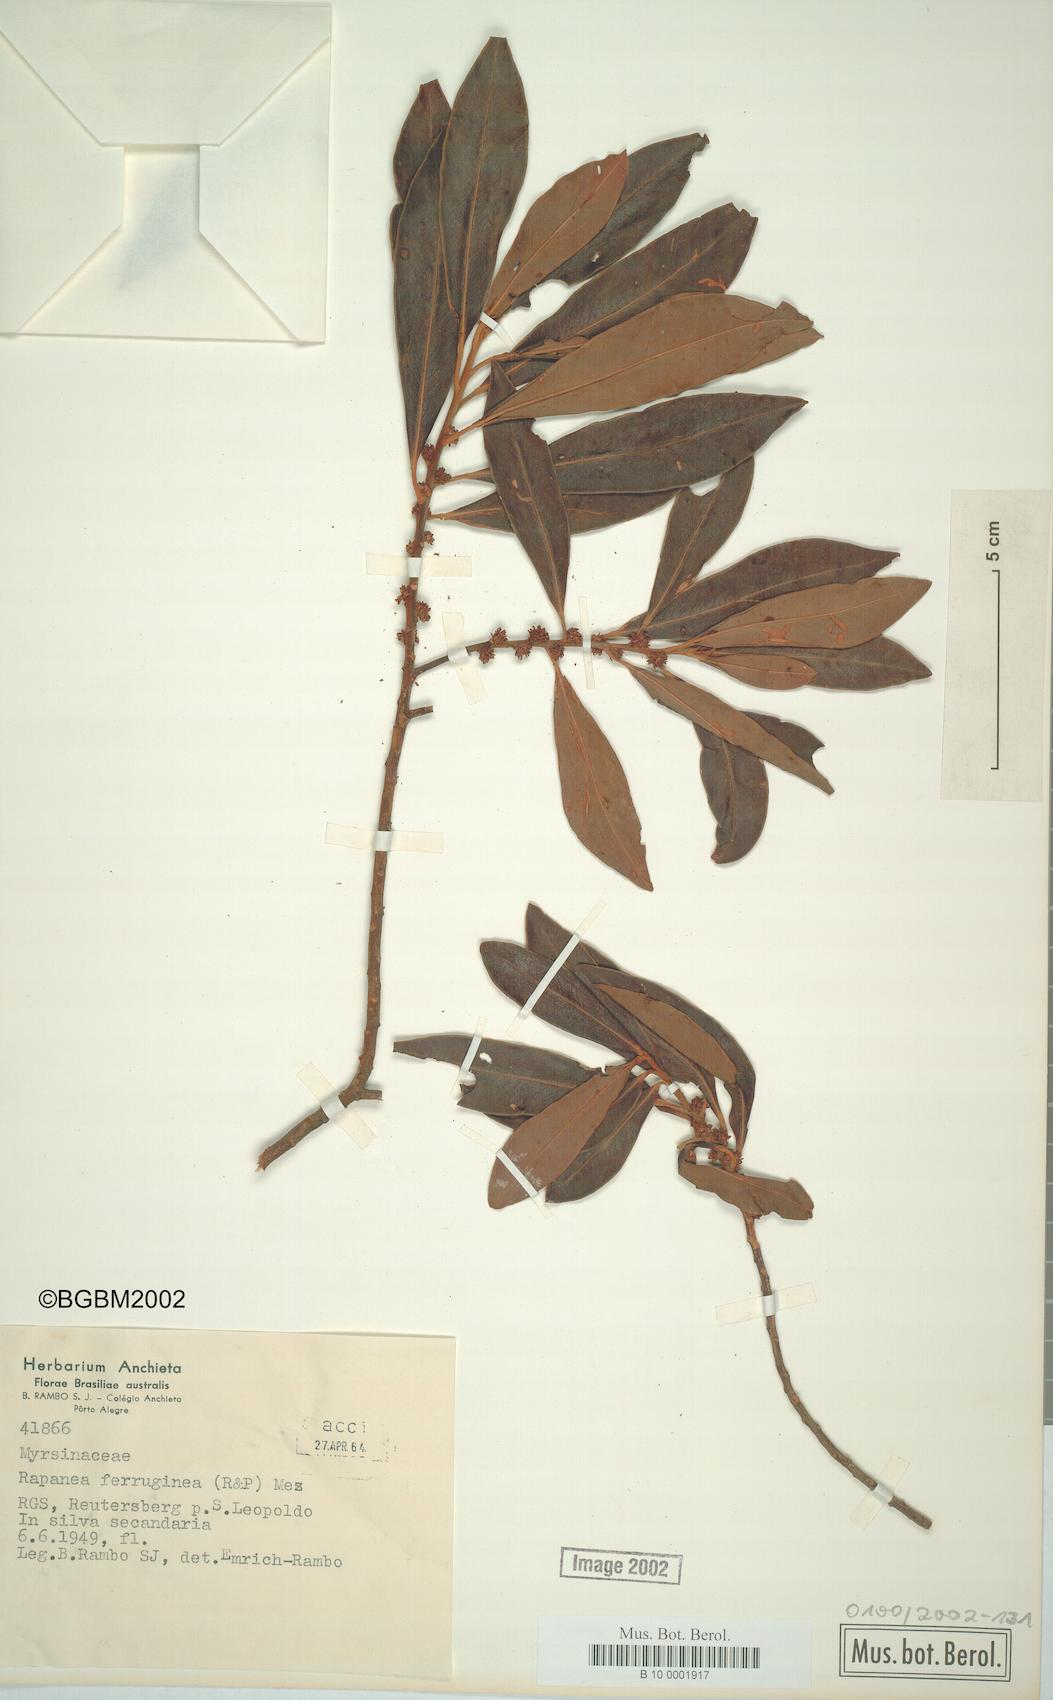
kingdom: Plantae
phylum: Tracheophyta
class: Magnoliopsida
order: Ericales
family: Primulaceae
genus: Myrsine
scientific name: Myrsine coriacea
